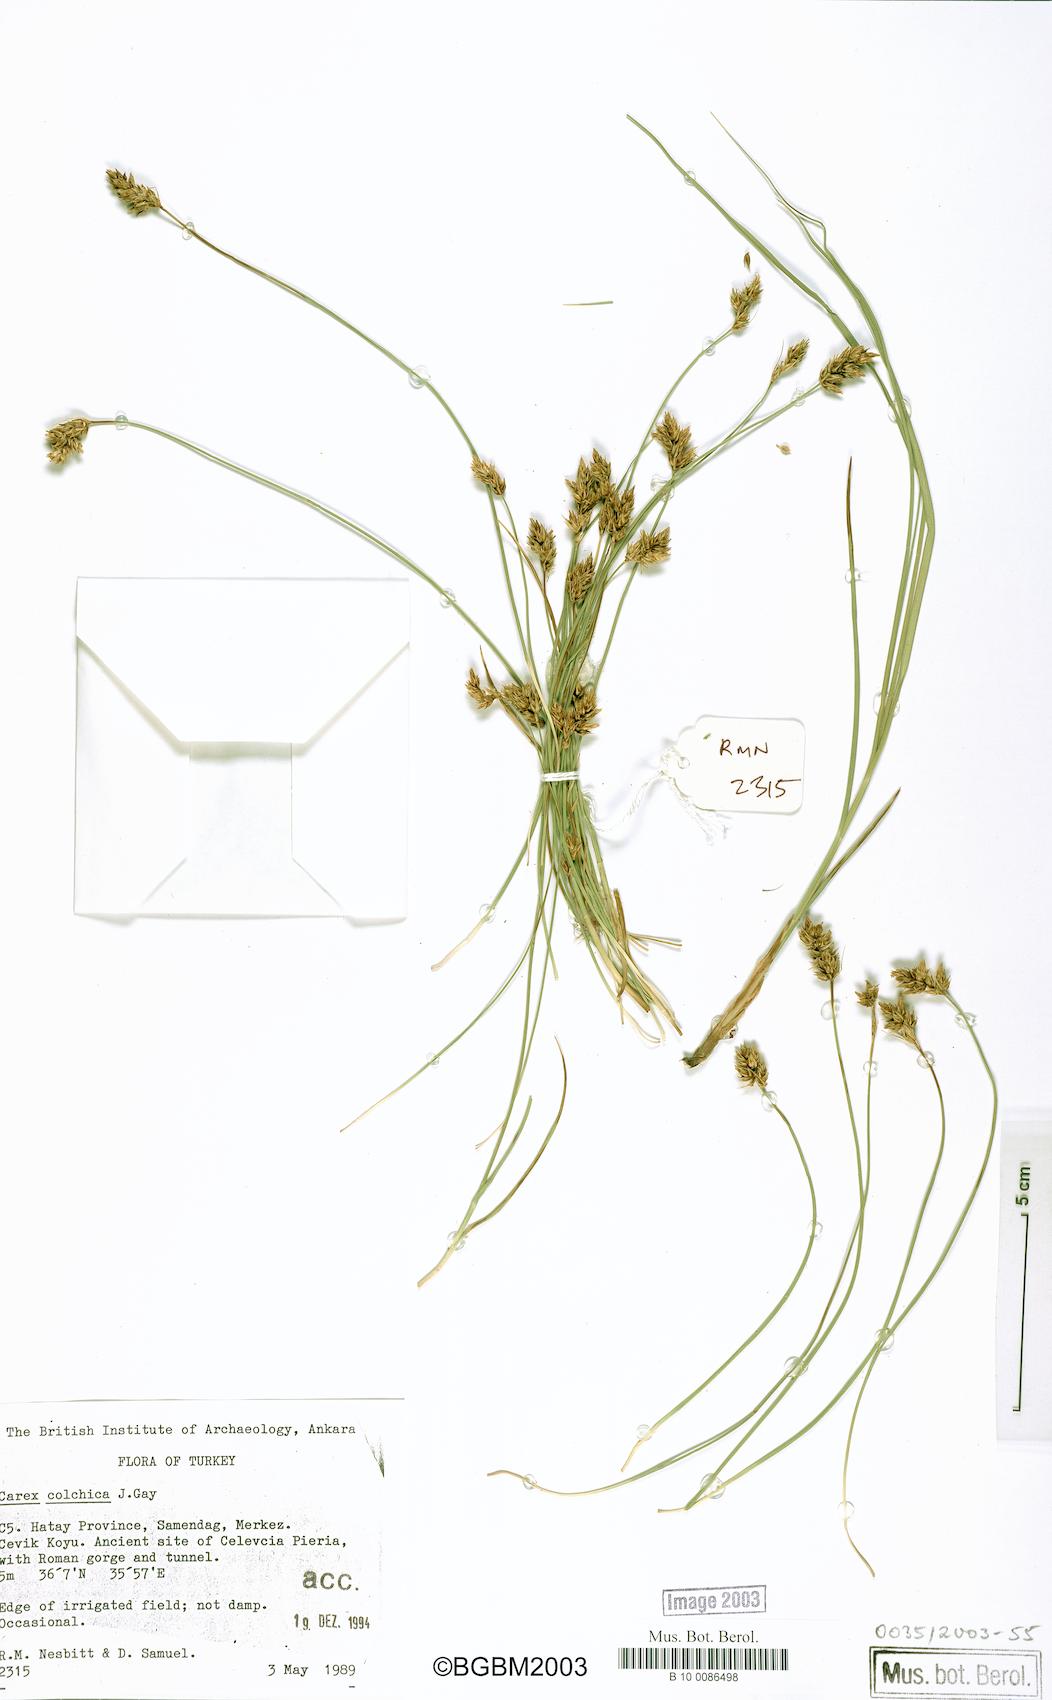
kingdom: Plantae
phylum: Tracheophyta
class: Liliopsida
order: Poales
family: Cyperaceae
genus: Carex
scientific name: Carex divisa
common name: Divided sedge
